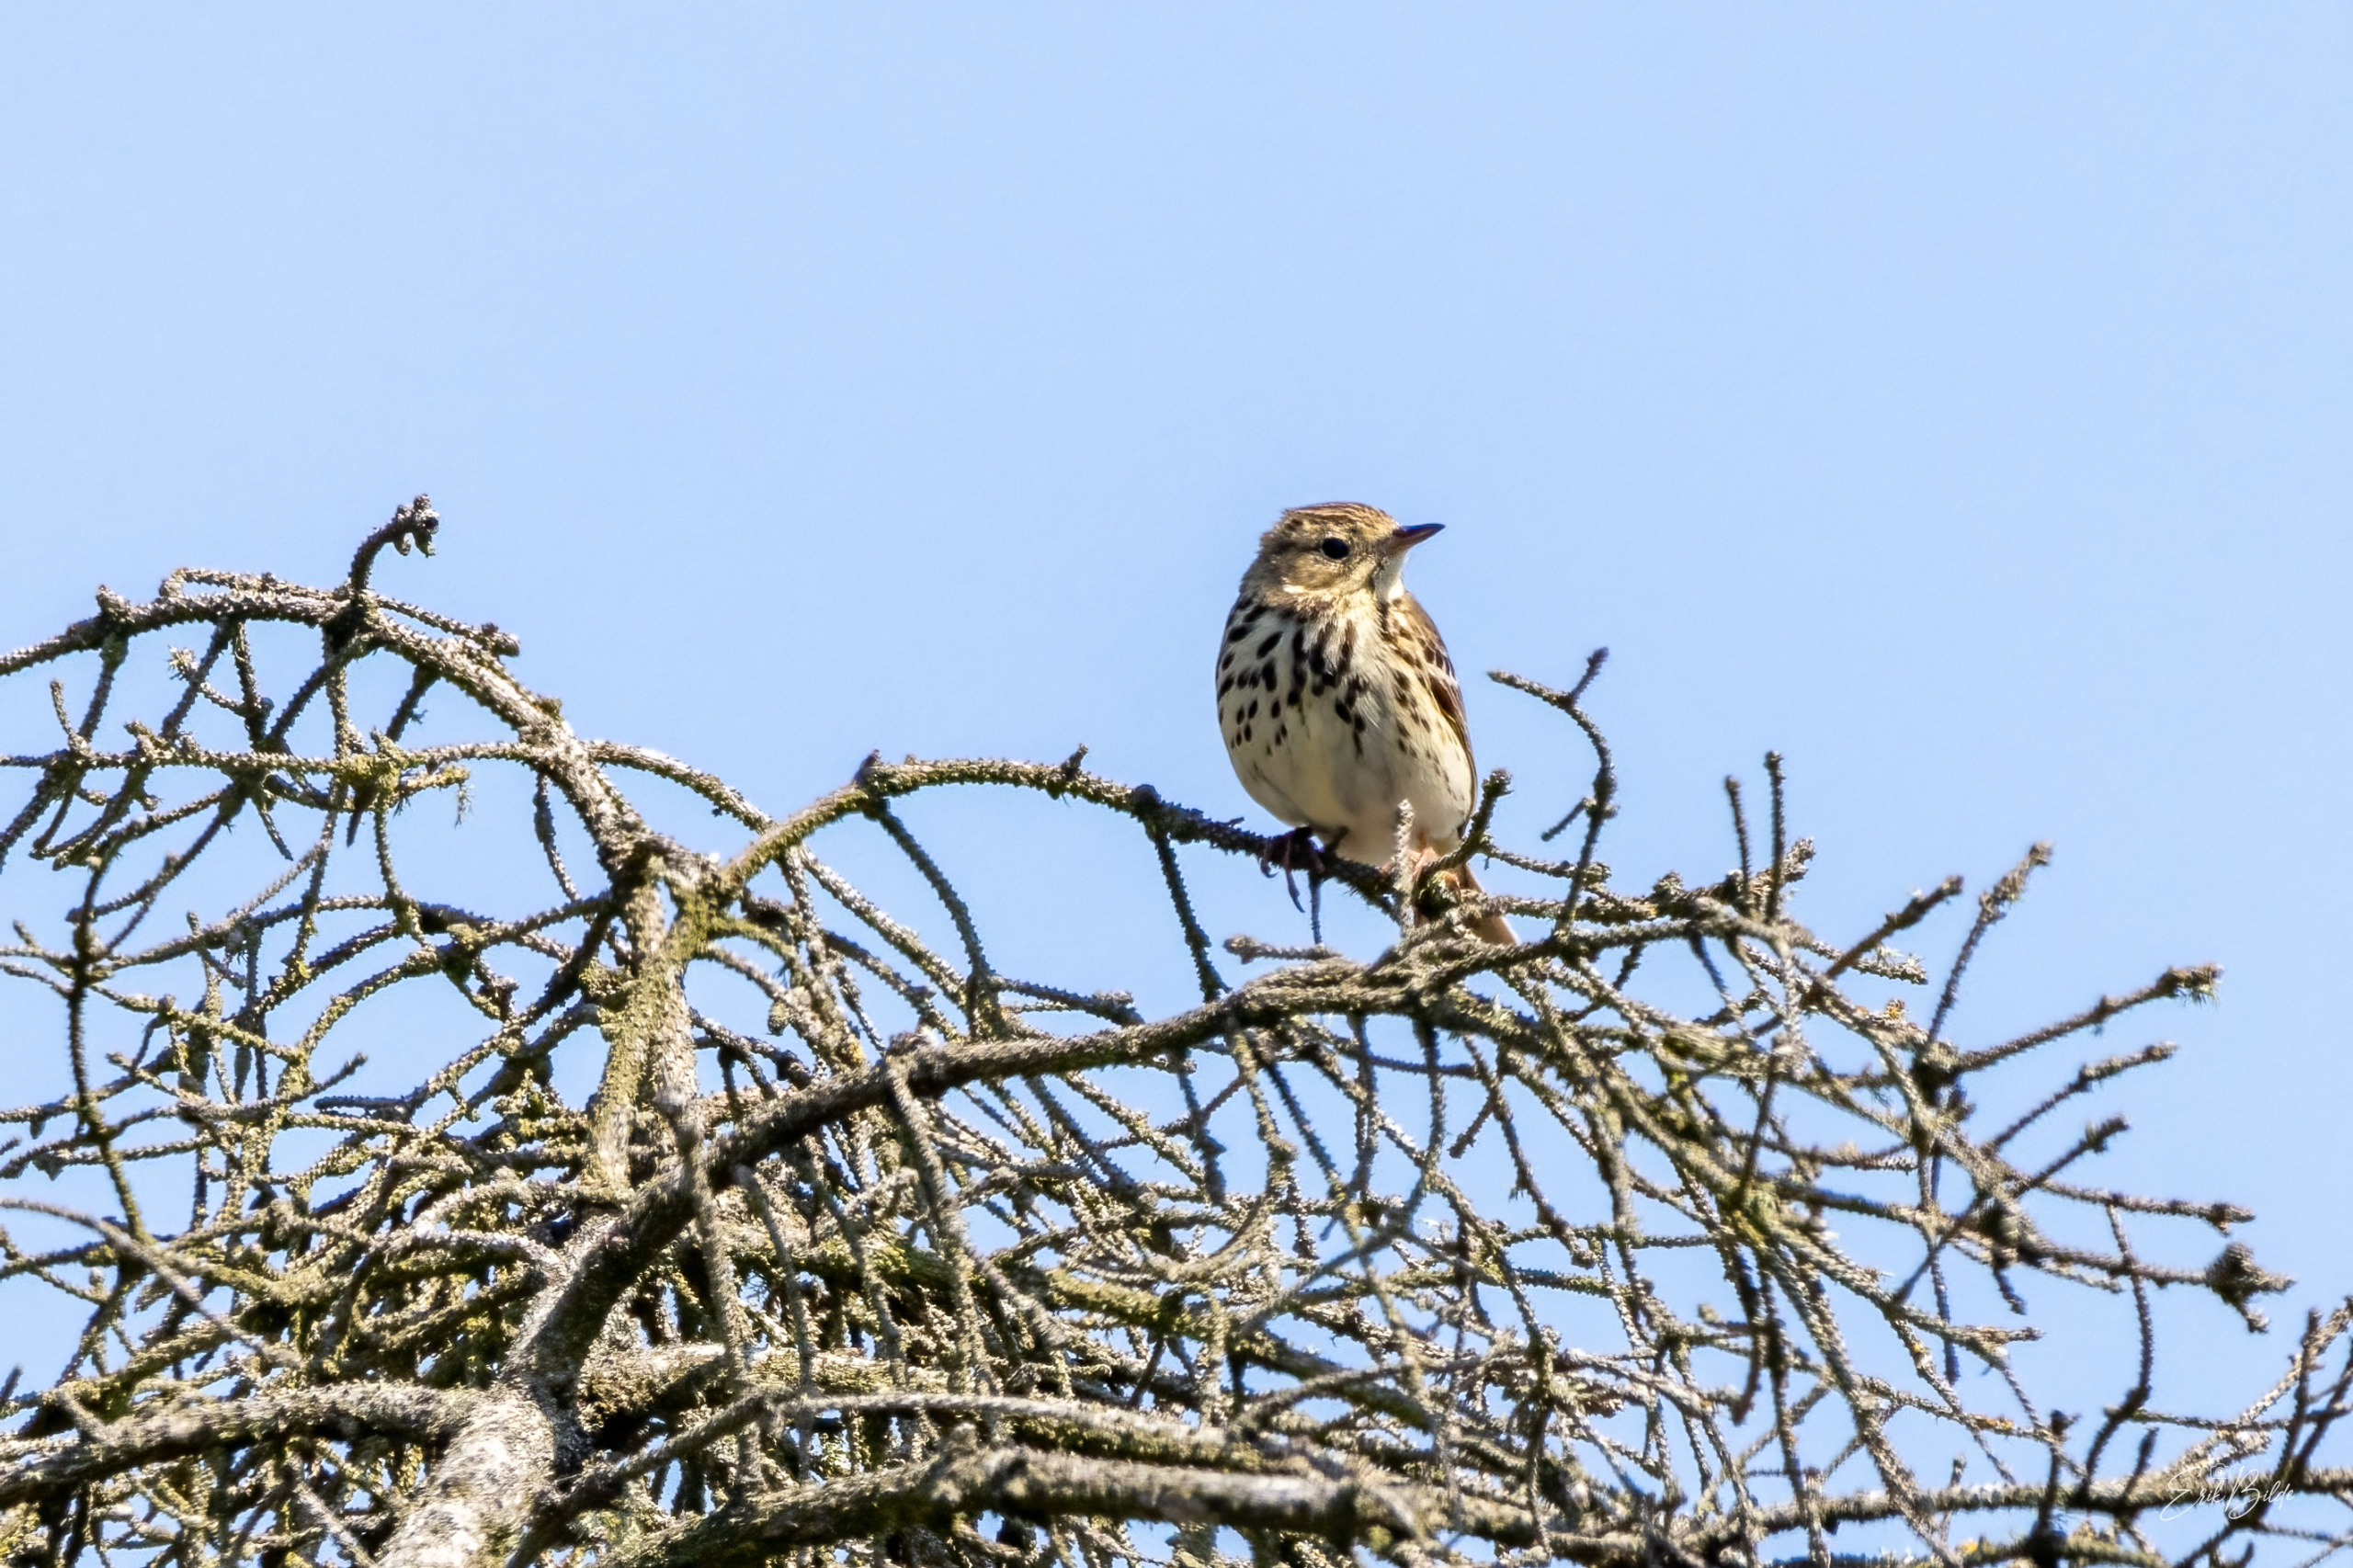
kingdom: Animalia
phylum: Chordata
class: Aves
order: Passeriformes
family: Motacillidae
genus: Anthus
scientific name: Anthus trivialis
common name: Skovpiber
